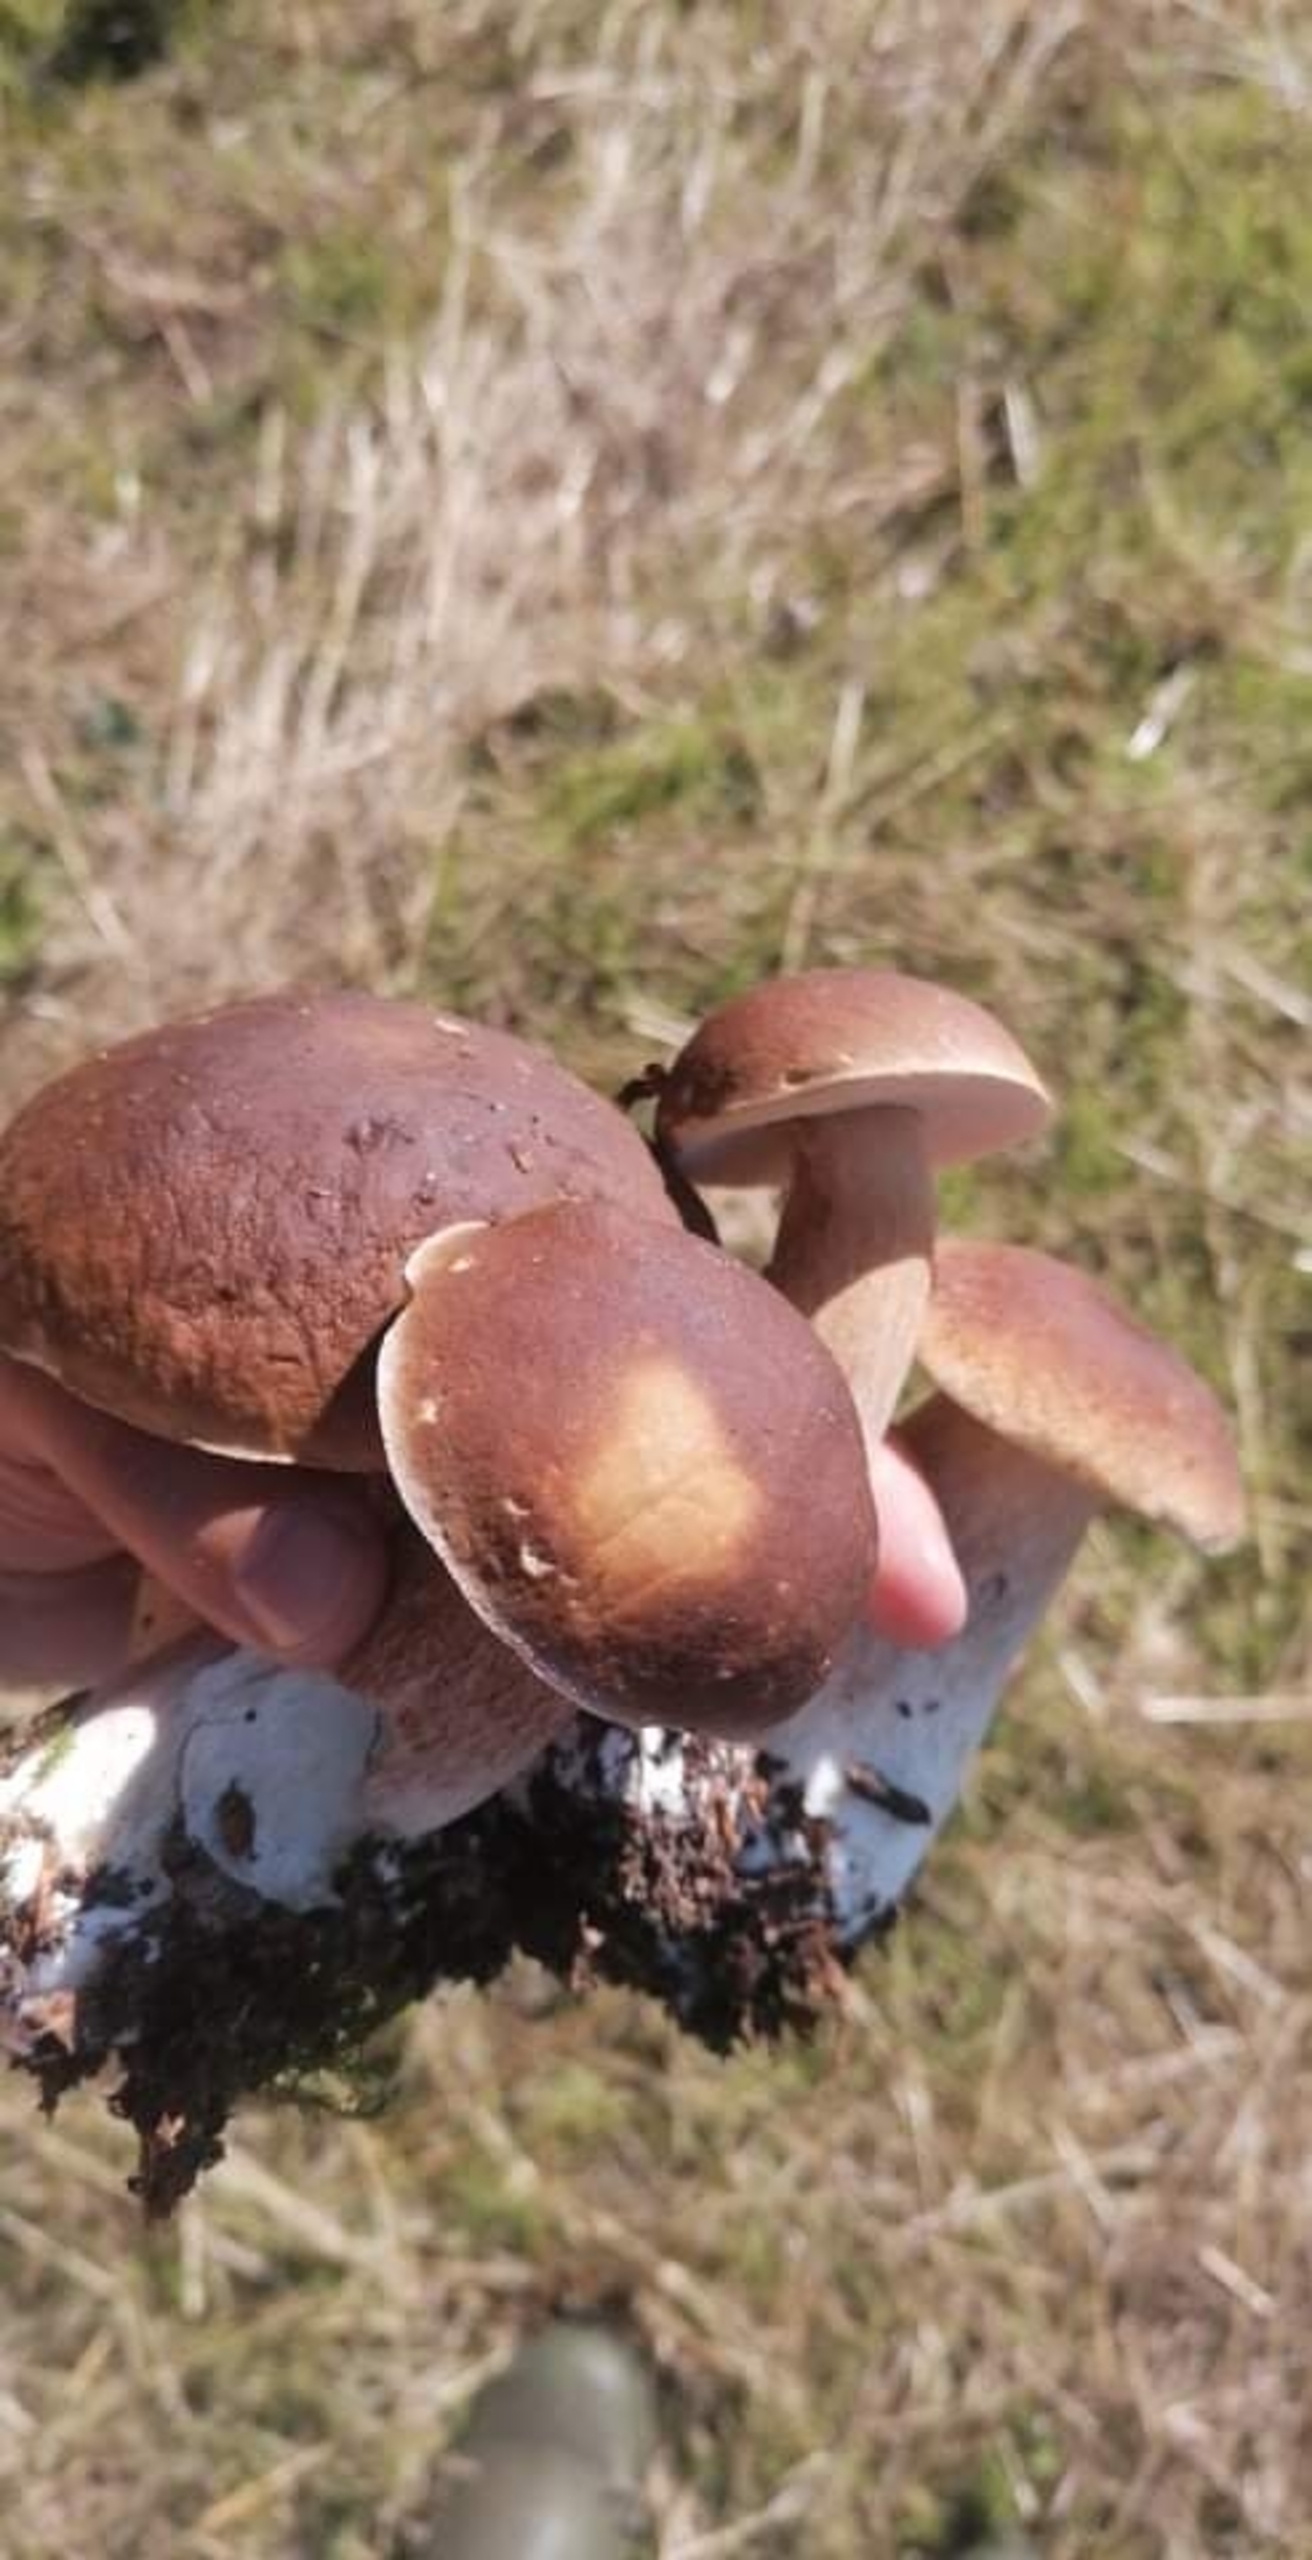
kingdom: Fungi
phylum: Basidiomycota
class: Agaricomycetes
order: Boletales
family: Boletaceae
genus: Boletus
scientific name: Boletus edulis
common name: Spiselig rørhat/karl johan
